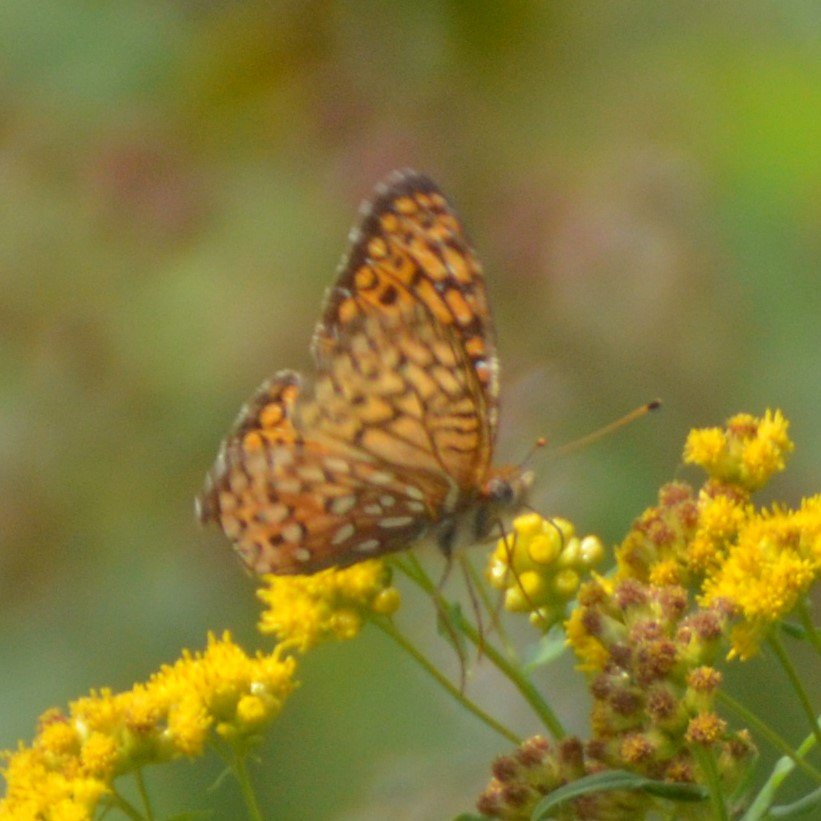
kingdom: Animalia
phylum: Arthropoda
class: Insecta
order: Lepidoptera
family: Nymphalidae
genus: Speyeria
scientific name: Speyeria atlantis
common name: Atlantis Fritillary
